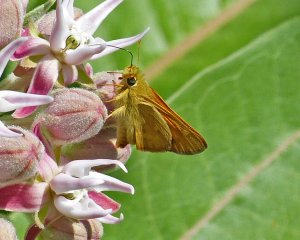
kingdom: Animalia
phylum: Arthropoda
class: Insecta
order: Lepidoptera
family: Hesperiidae
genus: Ochlodes
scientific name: Ochlodes sylvanoides
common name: Woodland Skipper
